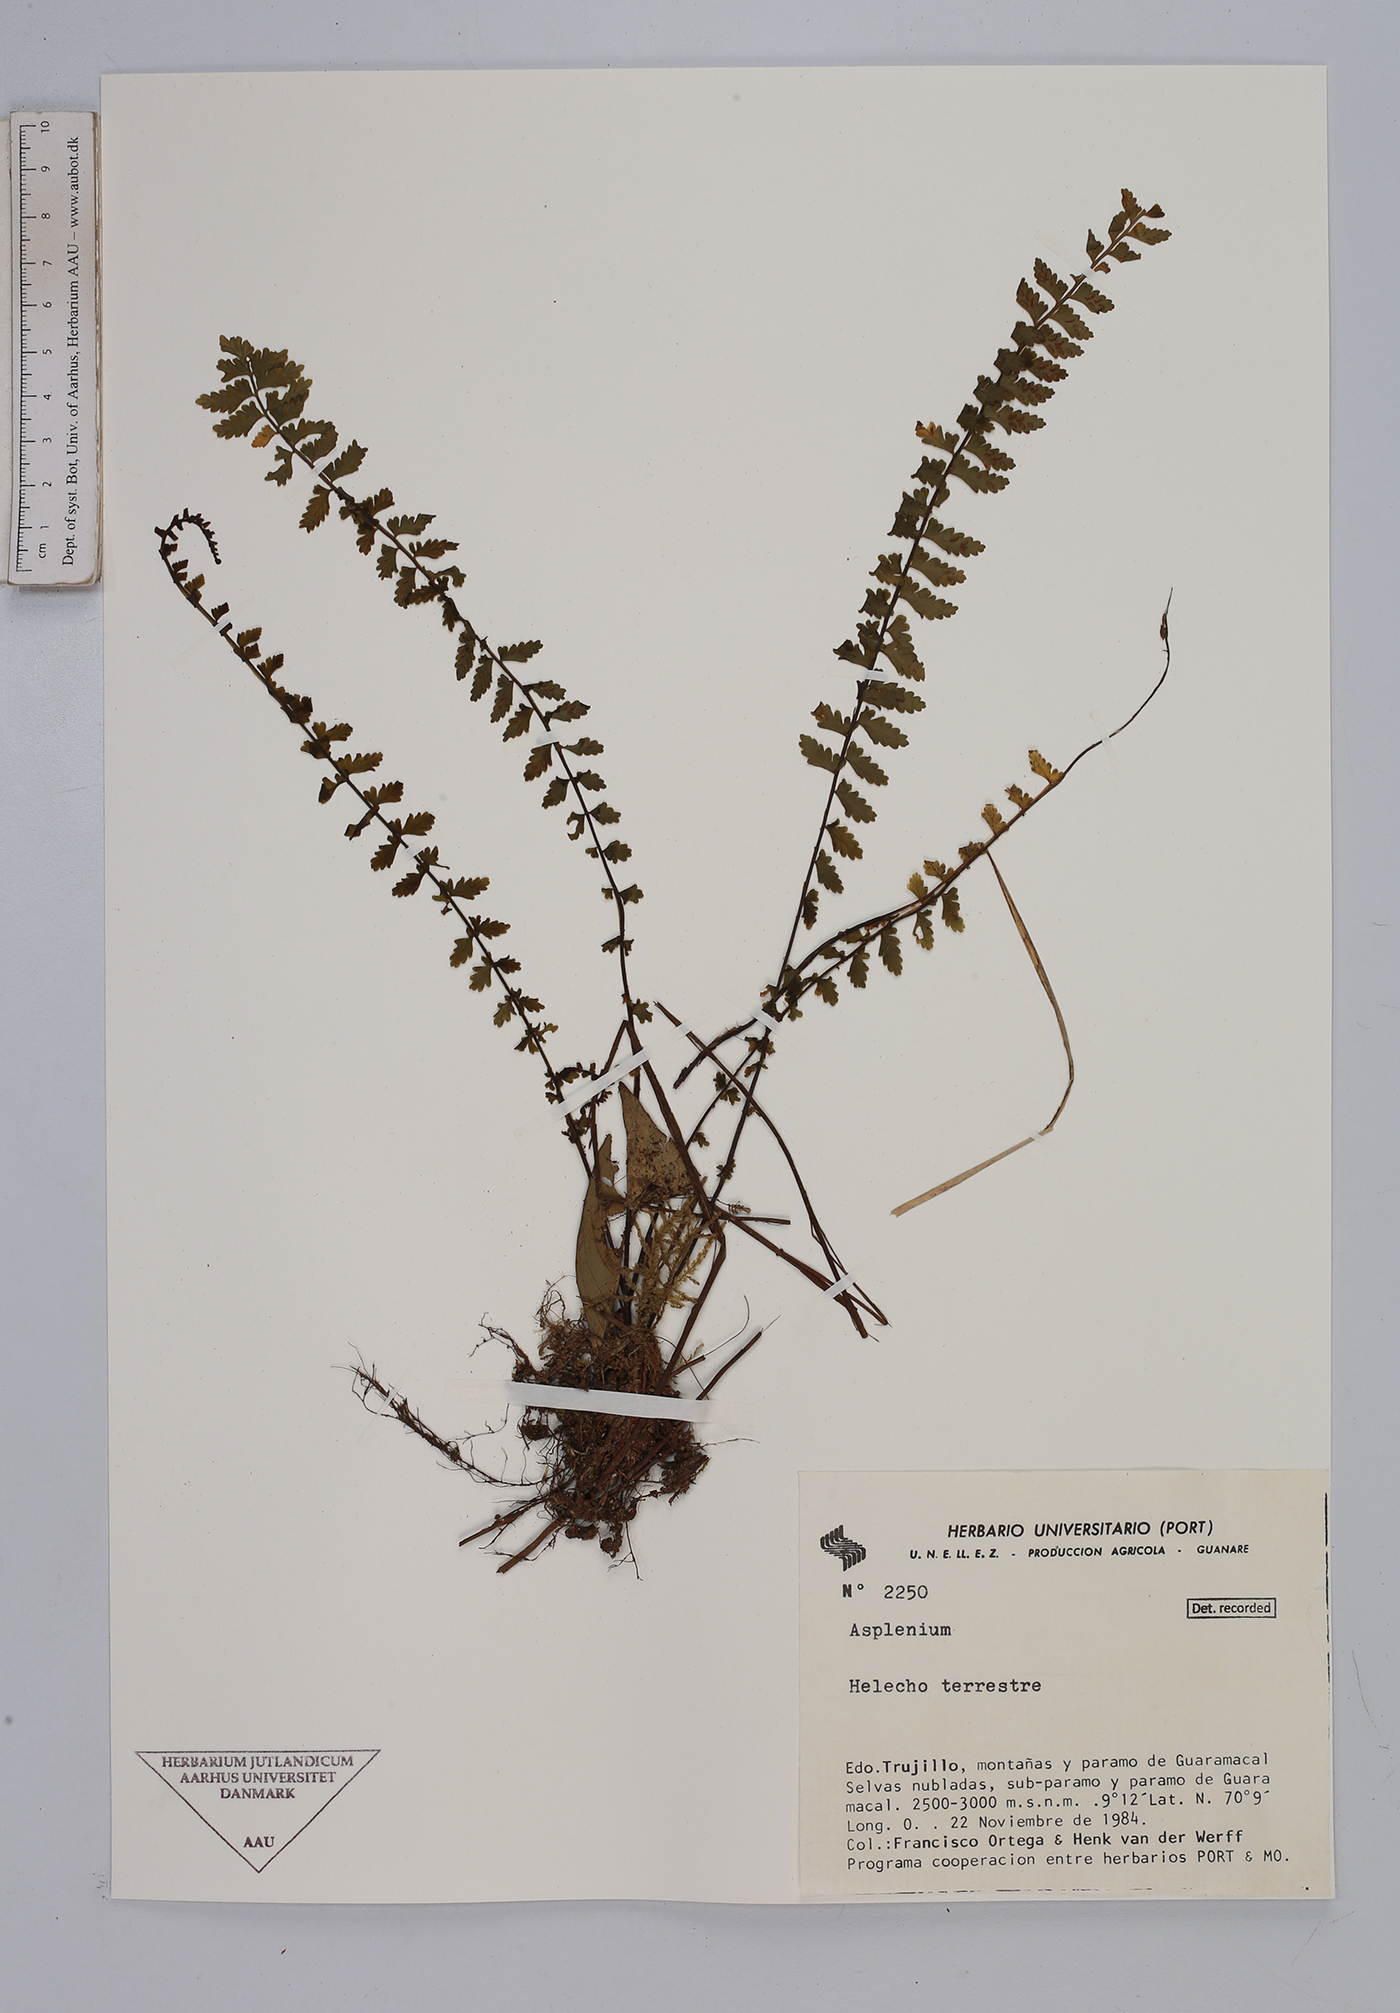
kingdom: Plantae
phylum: Tracheophyta
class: Polypodiopsida
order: Polypodiales
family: Aspleniaceae
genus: Asplenium
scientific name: Asplenium
